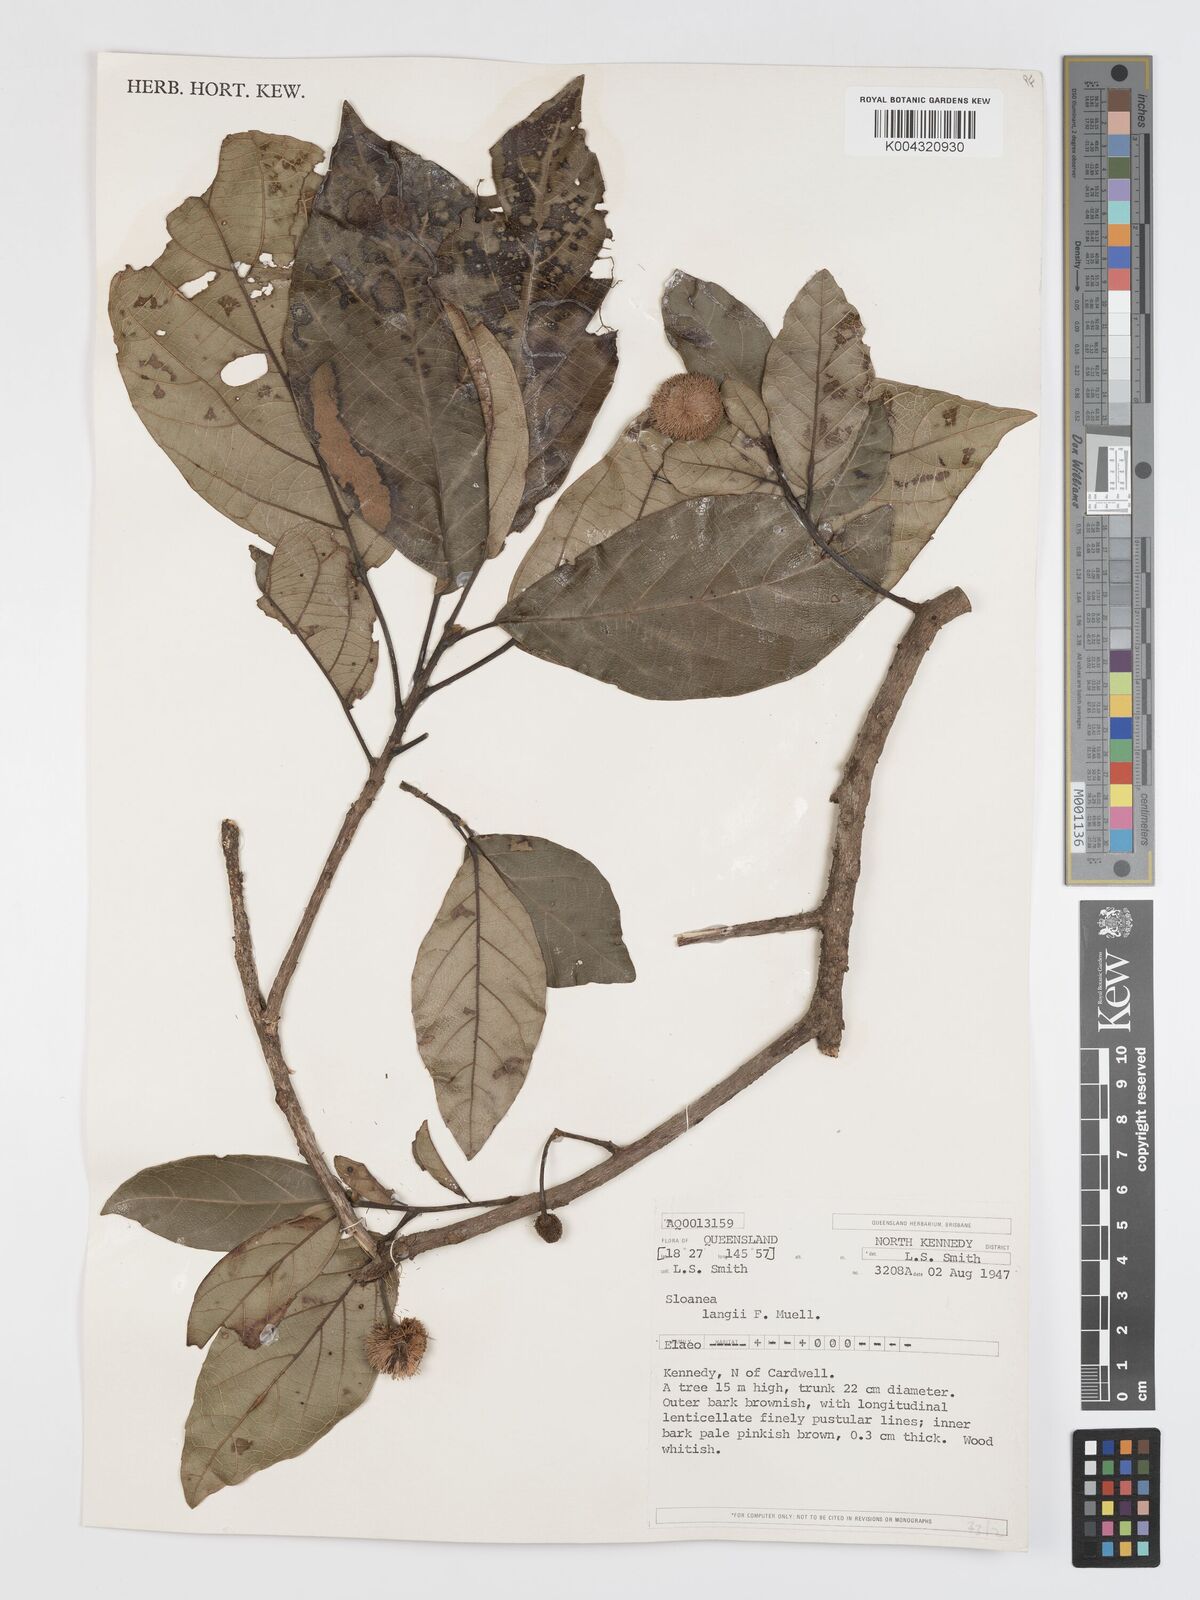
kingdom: Plantae
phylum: Tracheophyta
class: Magnoliopsida
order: Oxalidales
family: Elaeocarpaceae
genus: Sloanea
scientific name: Sloanea langii
